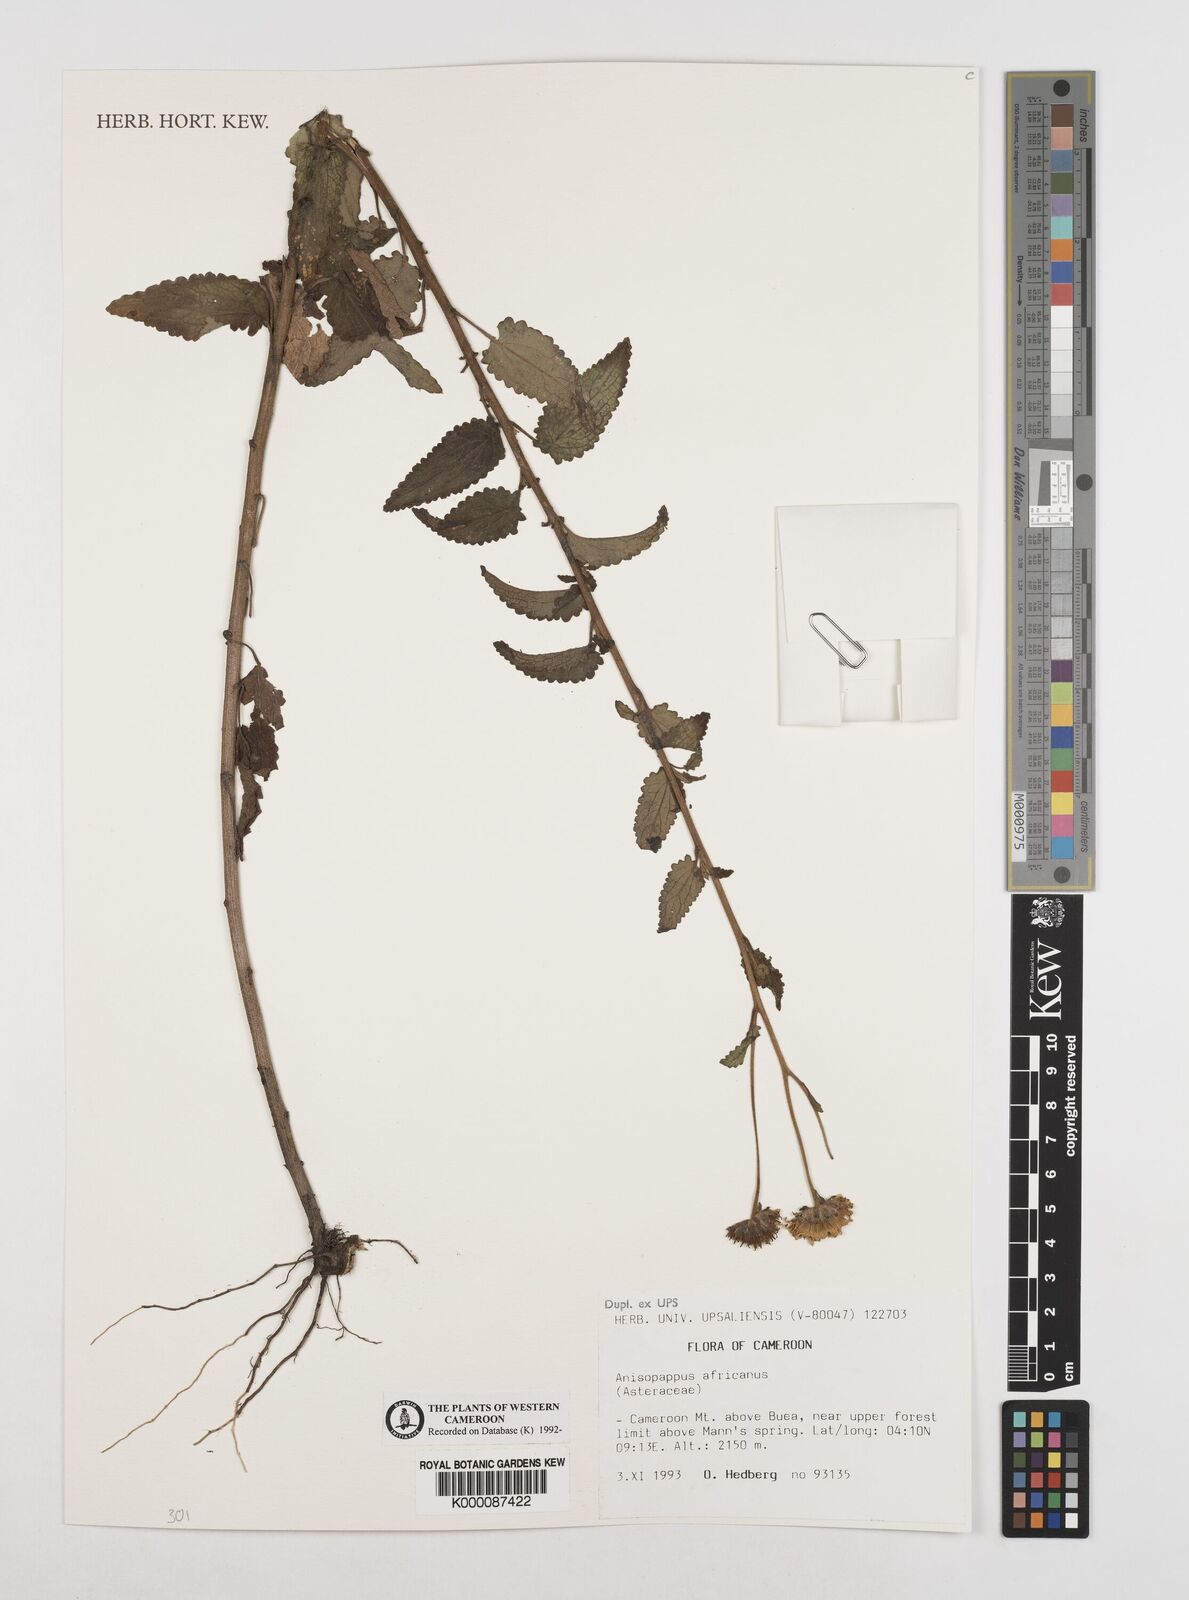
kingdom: Plantae
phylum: Tracheophyta
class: Magnoliopsida
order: Asterales
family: Asteraceae
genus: Anisopappus
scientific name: Anisopappus africanus
